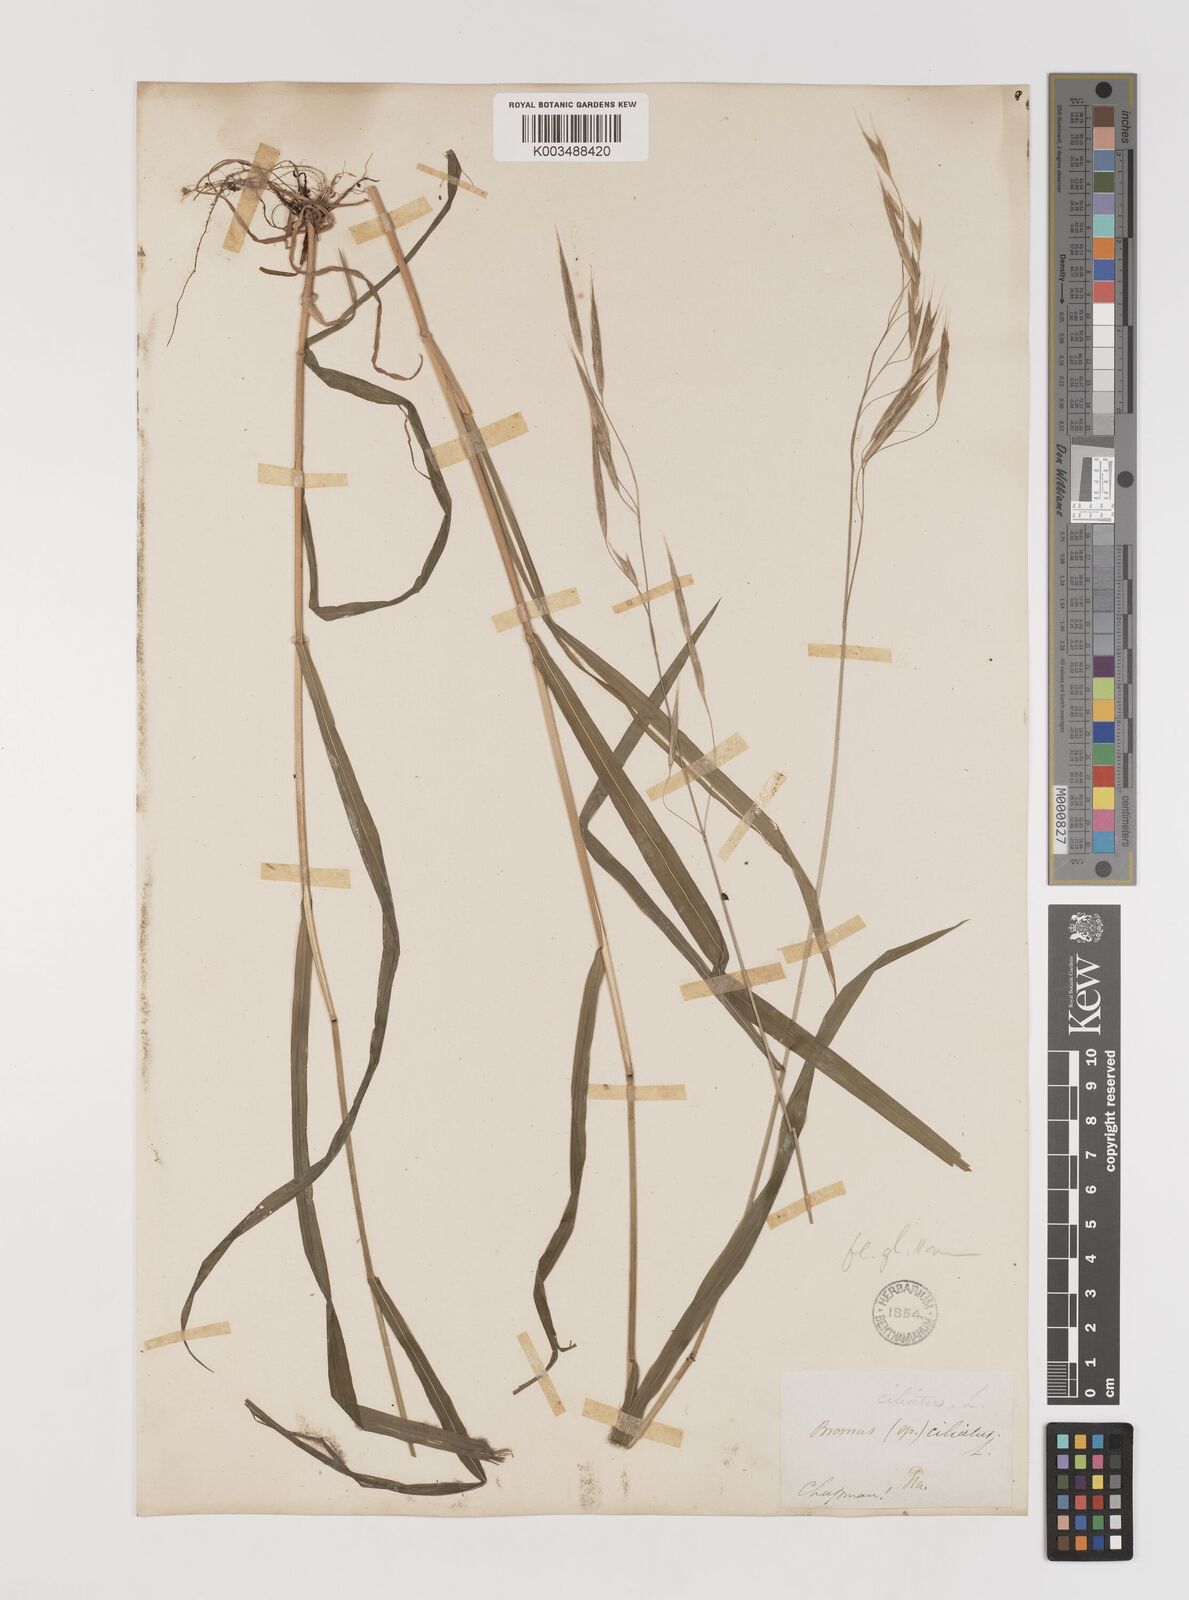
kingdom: Plantae
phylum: Tracheophyta
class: Liliopsida
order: Poales
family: Poaceae
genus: Bromus
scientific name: Bromus ciliatus
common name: Fringe brome
